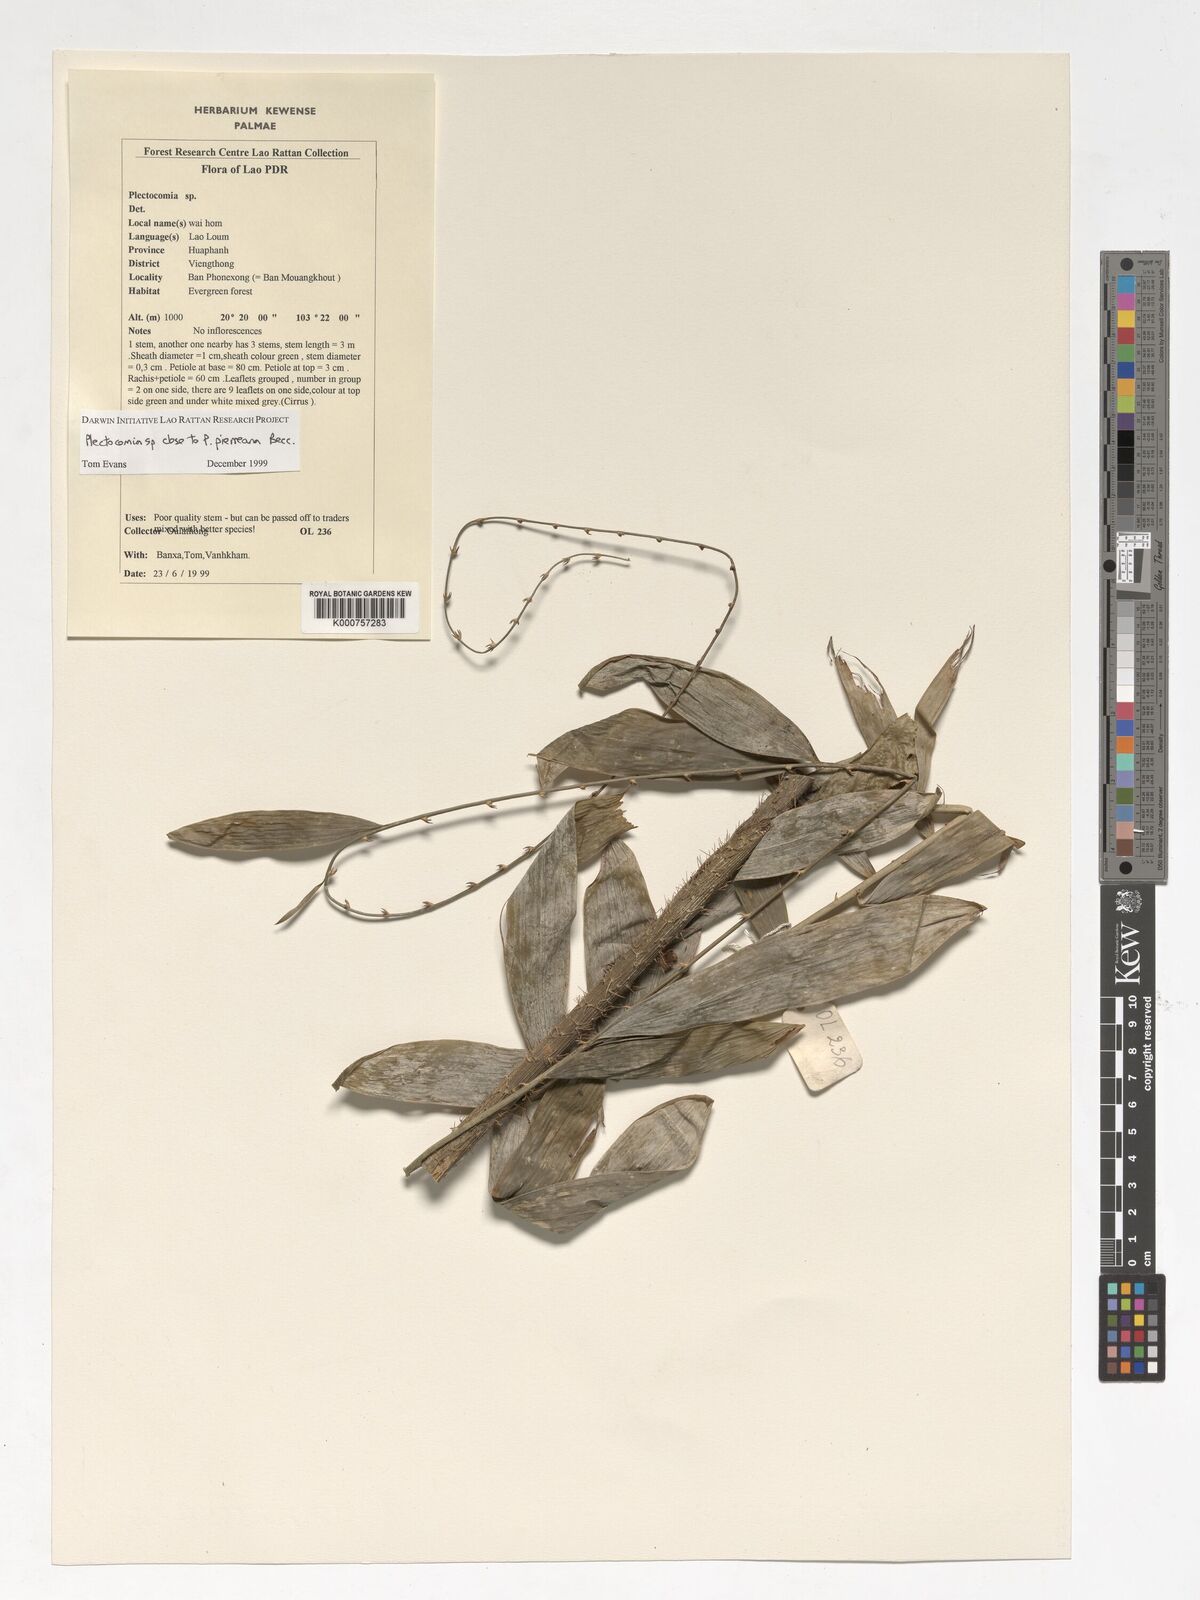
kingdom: Plantae
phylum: Tracheophyta
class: Liliopsida
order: Arecales
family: Arecaceae
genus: Plectocomia
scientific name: Plectocomia pierreana
